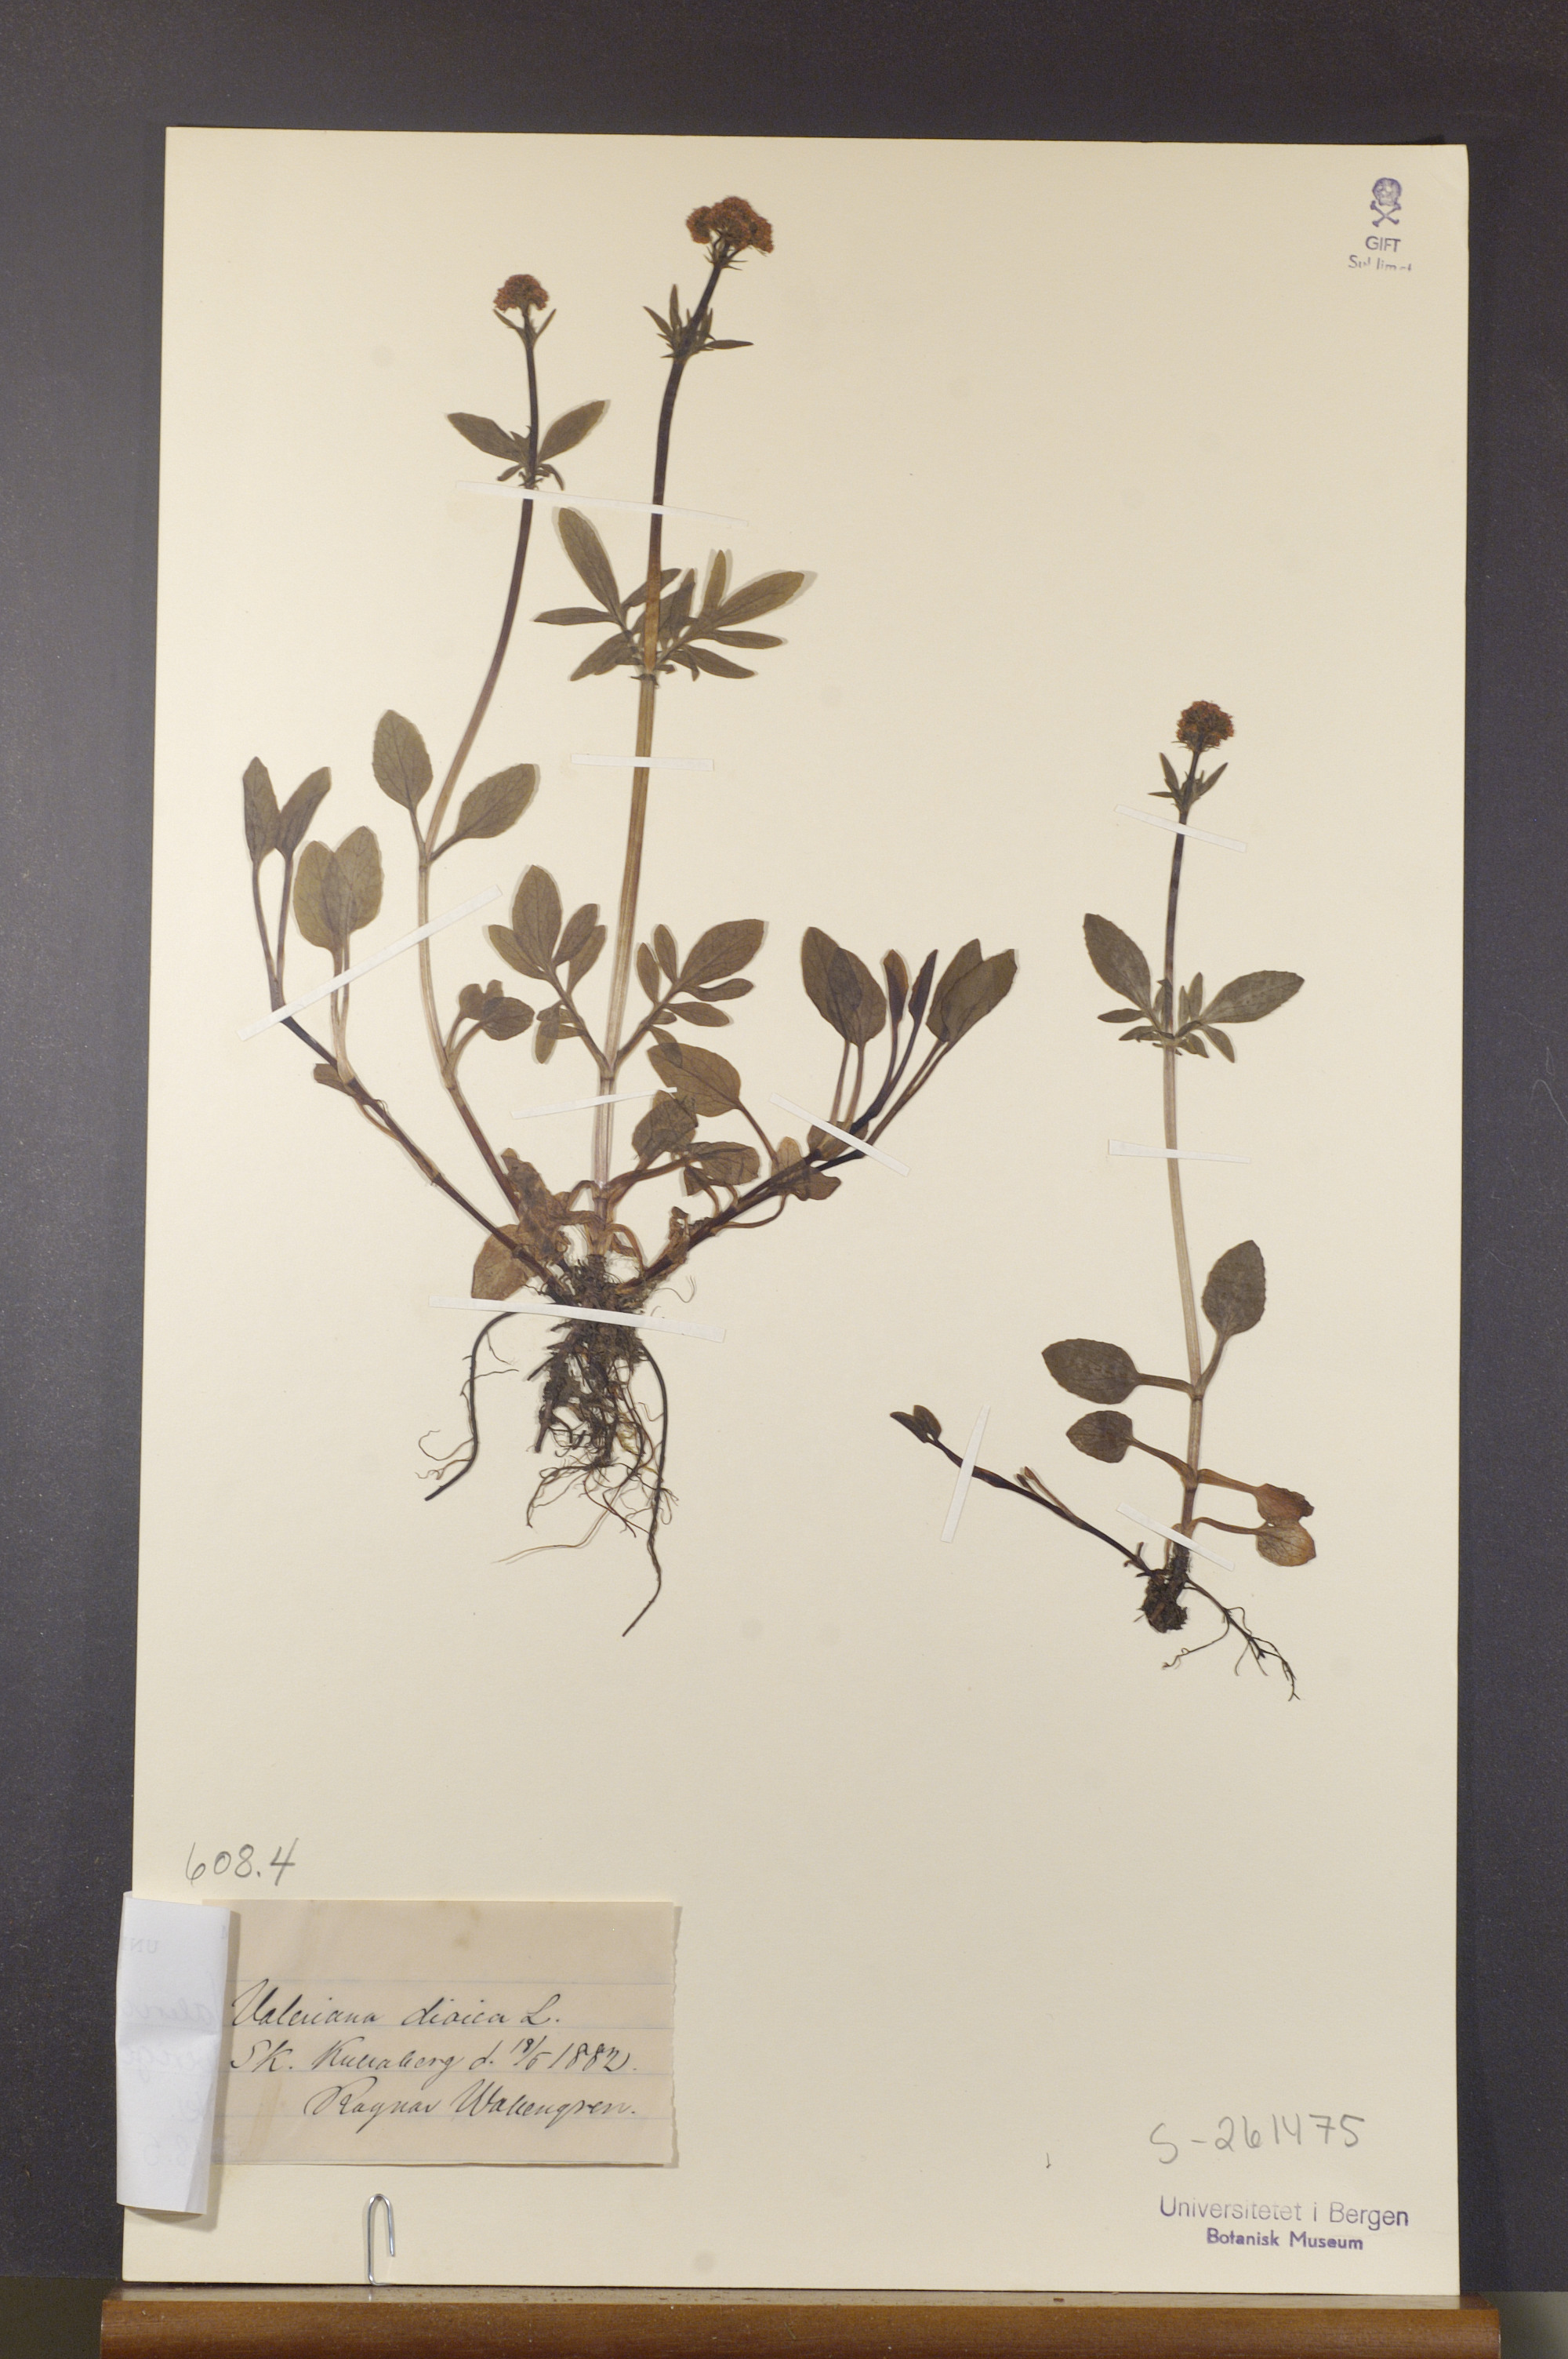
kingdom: Plantae
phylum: Tracheophyta
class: Magnoliopsida
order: Dipsacales
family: Caprifoliaceae
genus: Valeriana
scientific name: Valeriana dioica
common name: Marsh valerian
